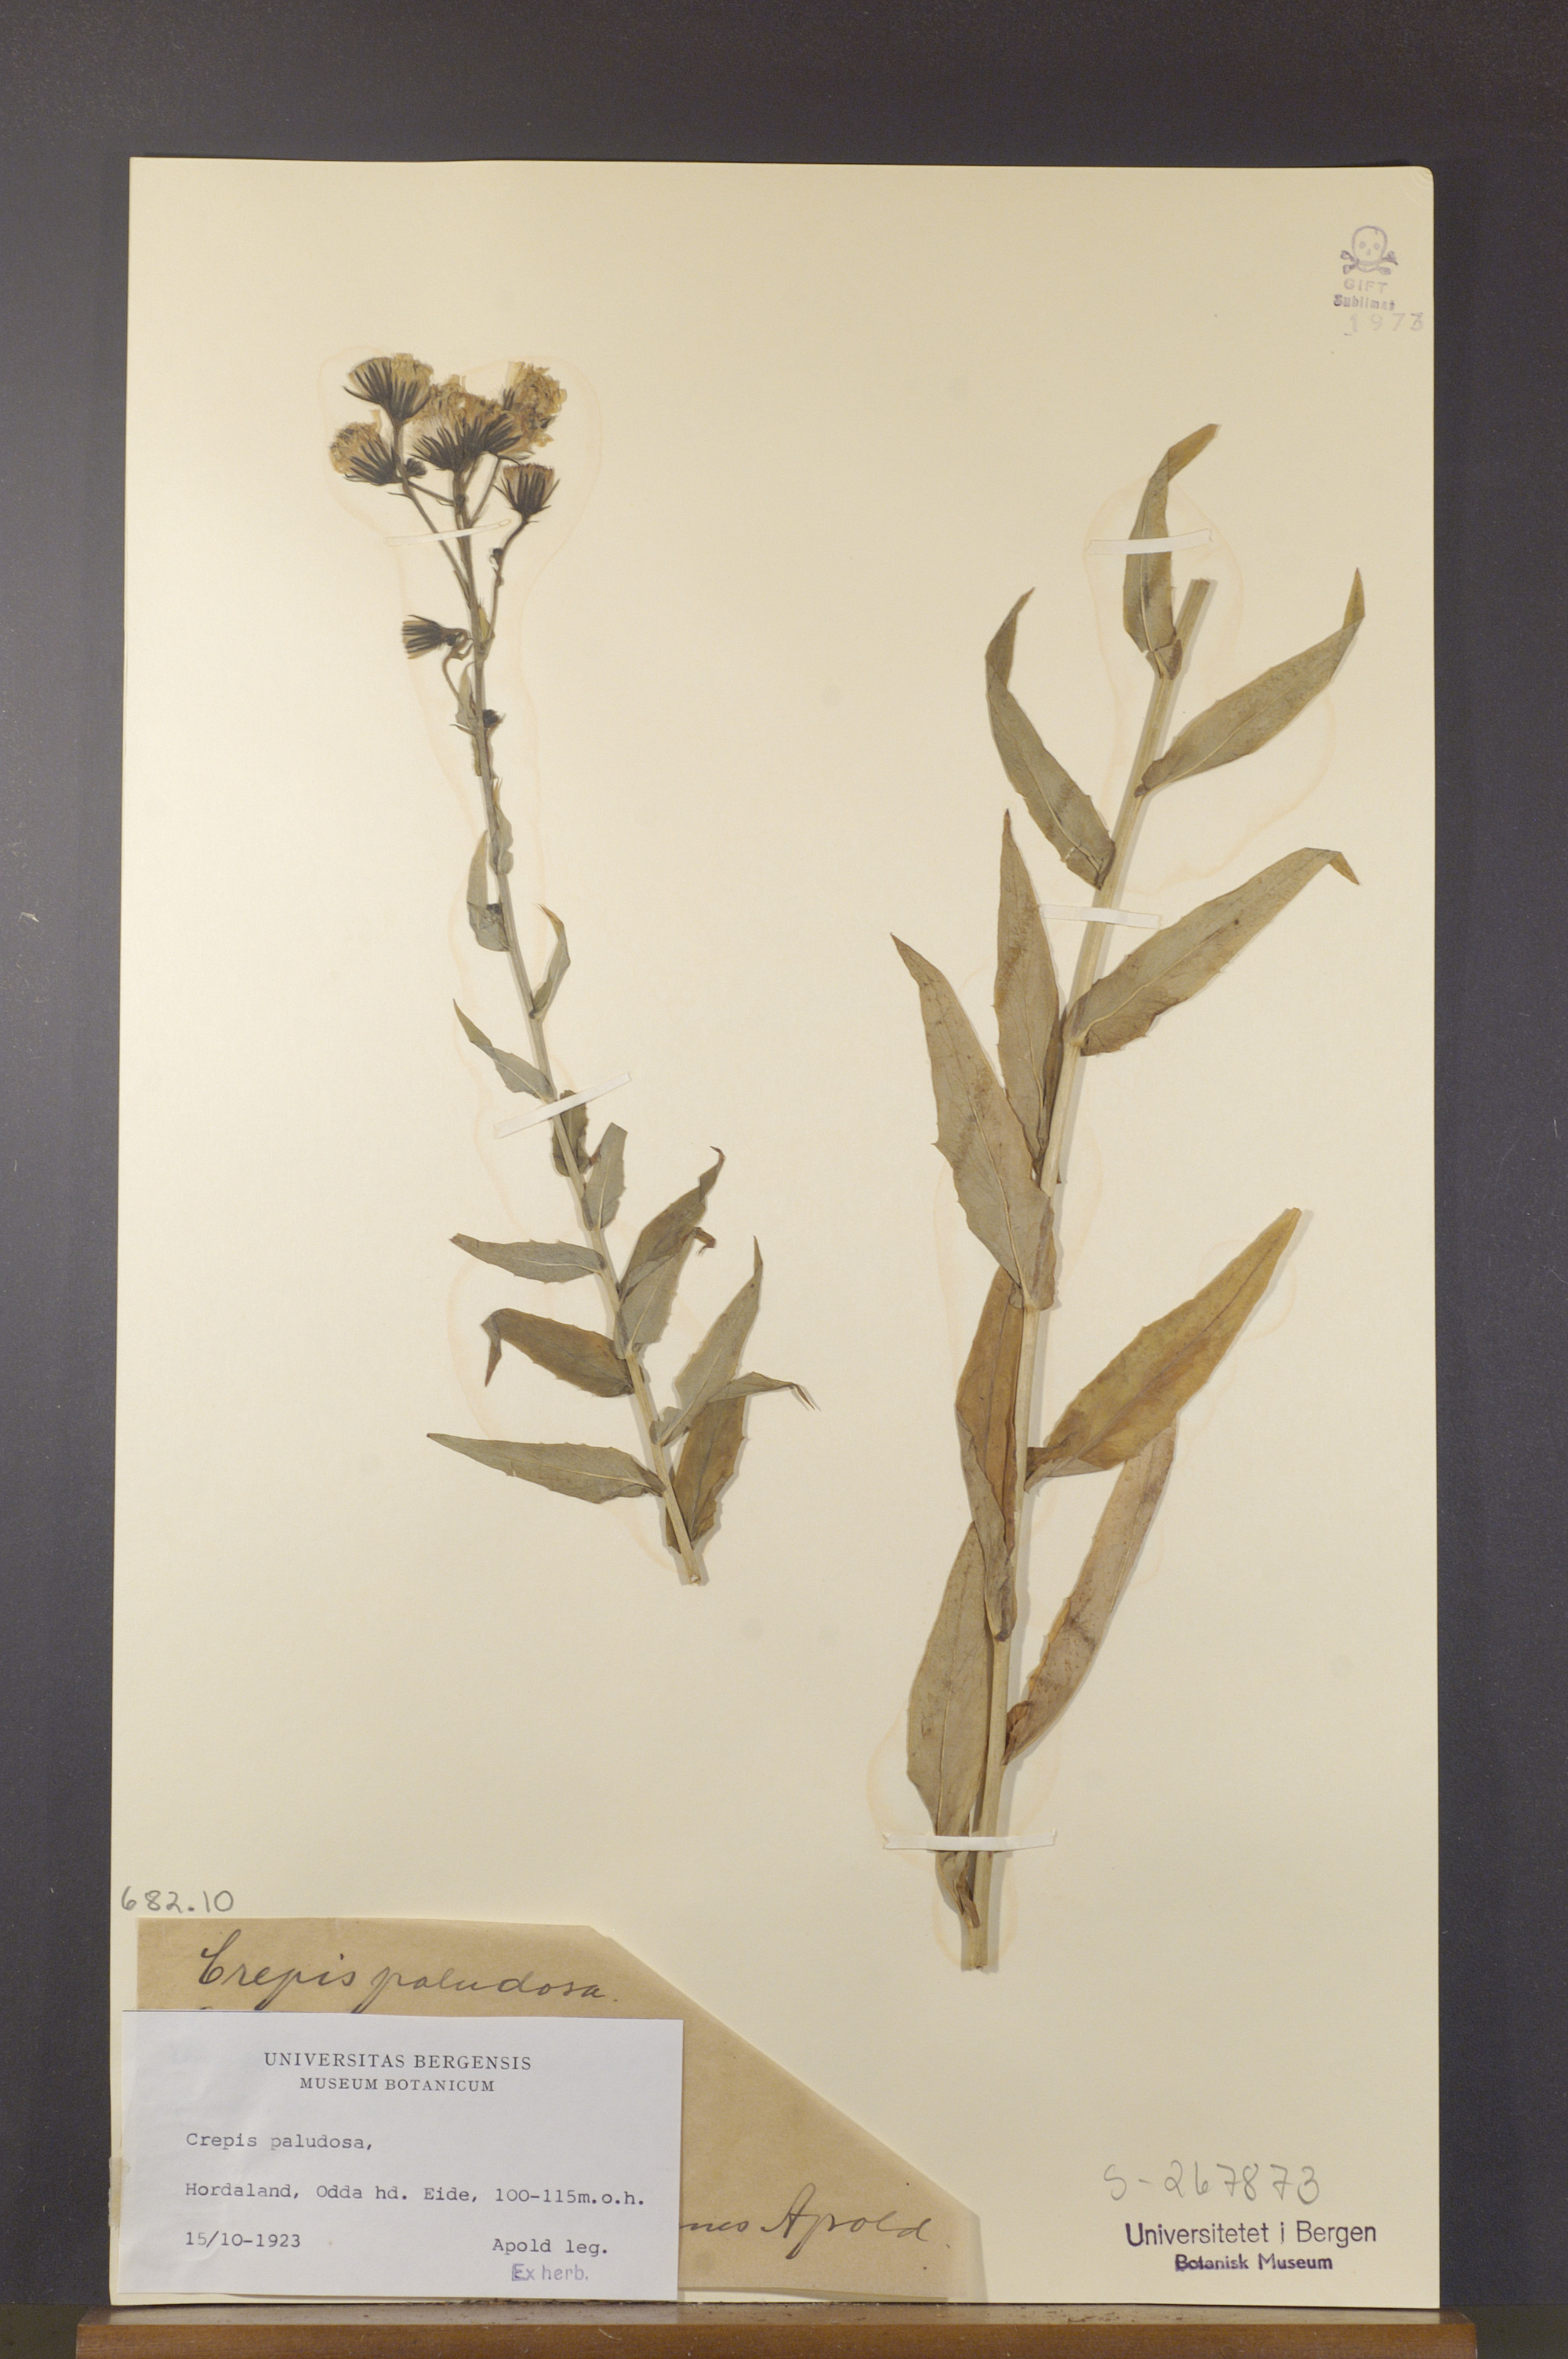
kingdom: Plantae
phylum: Tracheophyta
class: Magnoliopsida
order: Asterales
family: Asteraceae
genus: Crepis
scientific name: Crepis paludosa
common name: Marsh hawk's-beard
